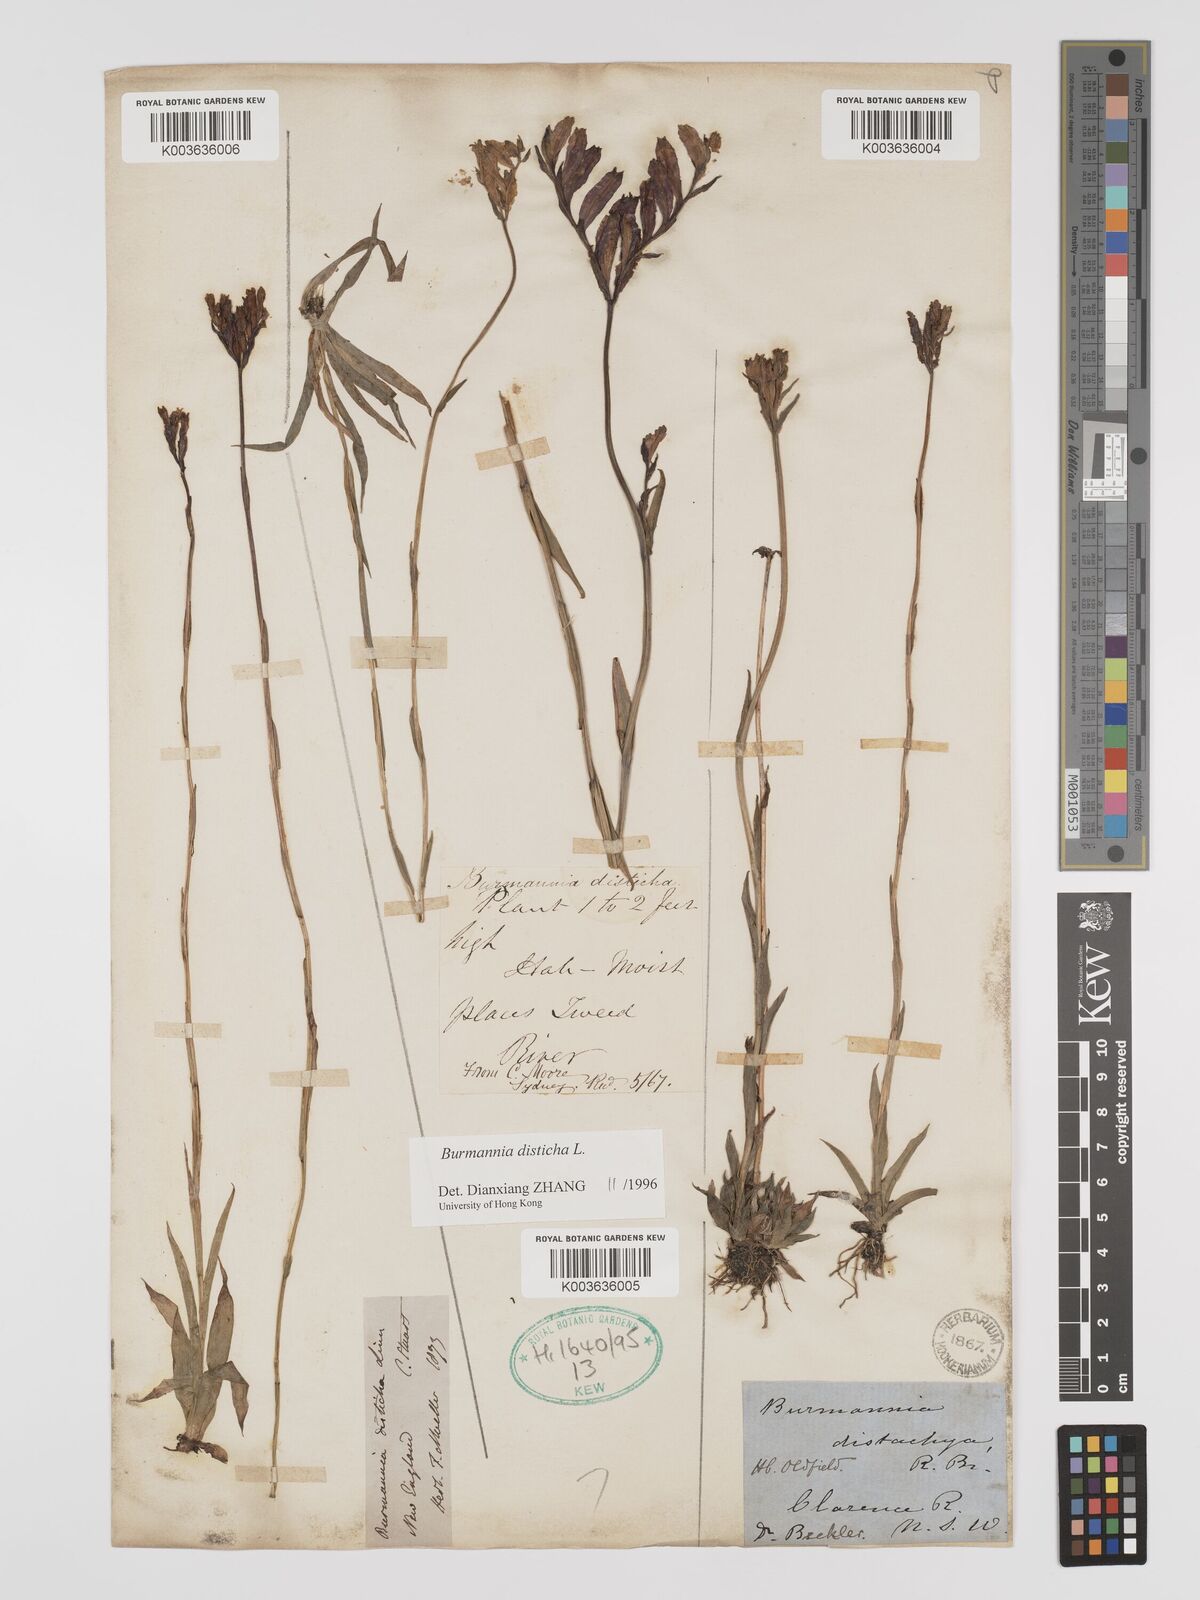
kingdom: Plantae
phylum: Tracheophyta
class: Liliopsida
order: Dioscoreales
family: Burmanniaceae
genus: Burmannia
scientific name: Burmannia disticha
